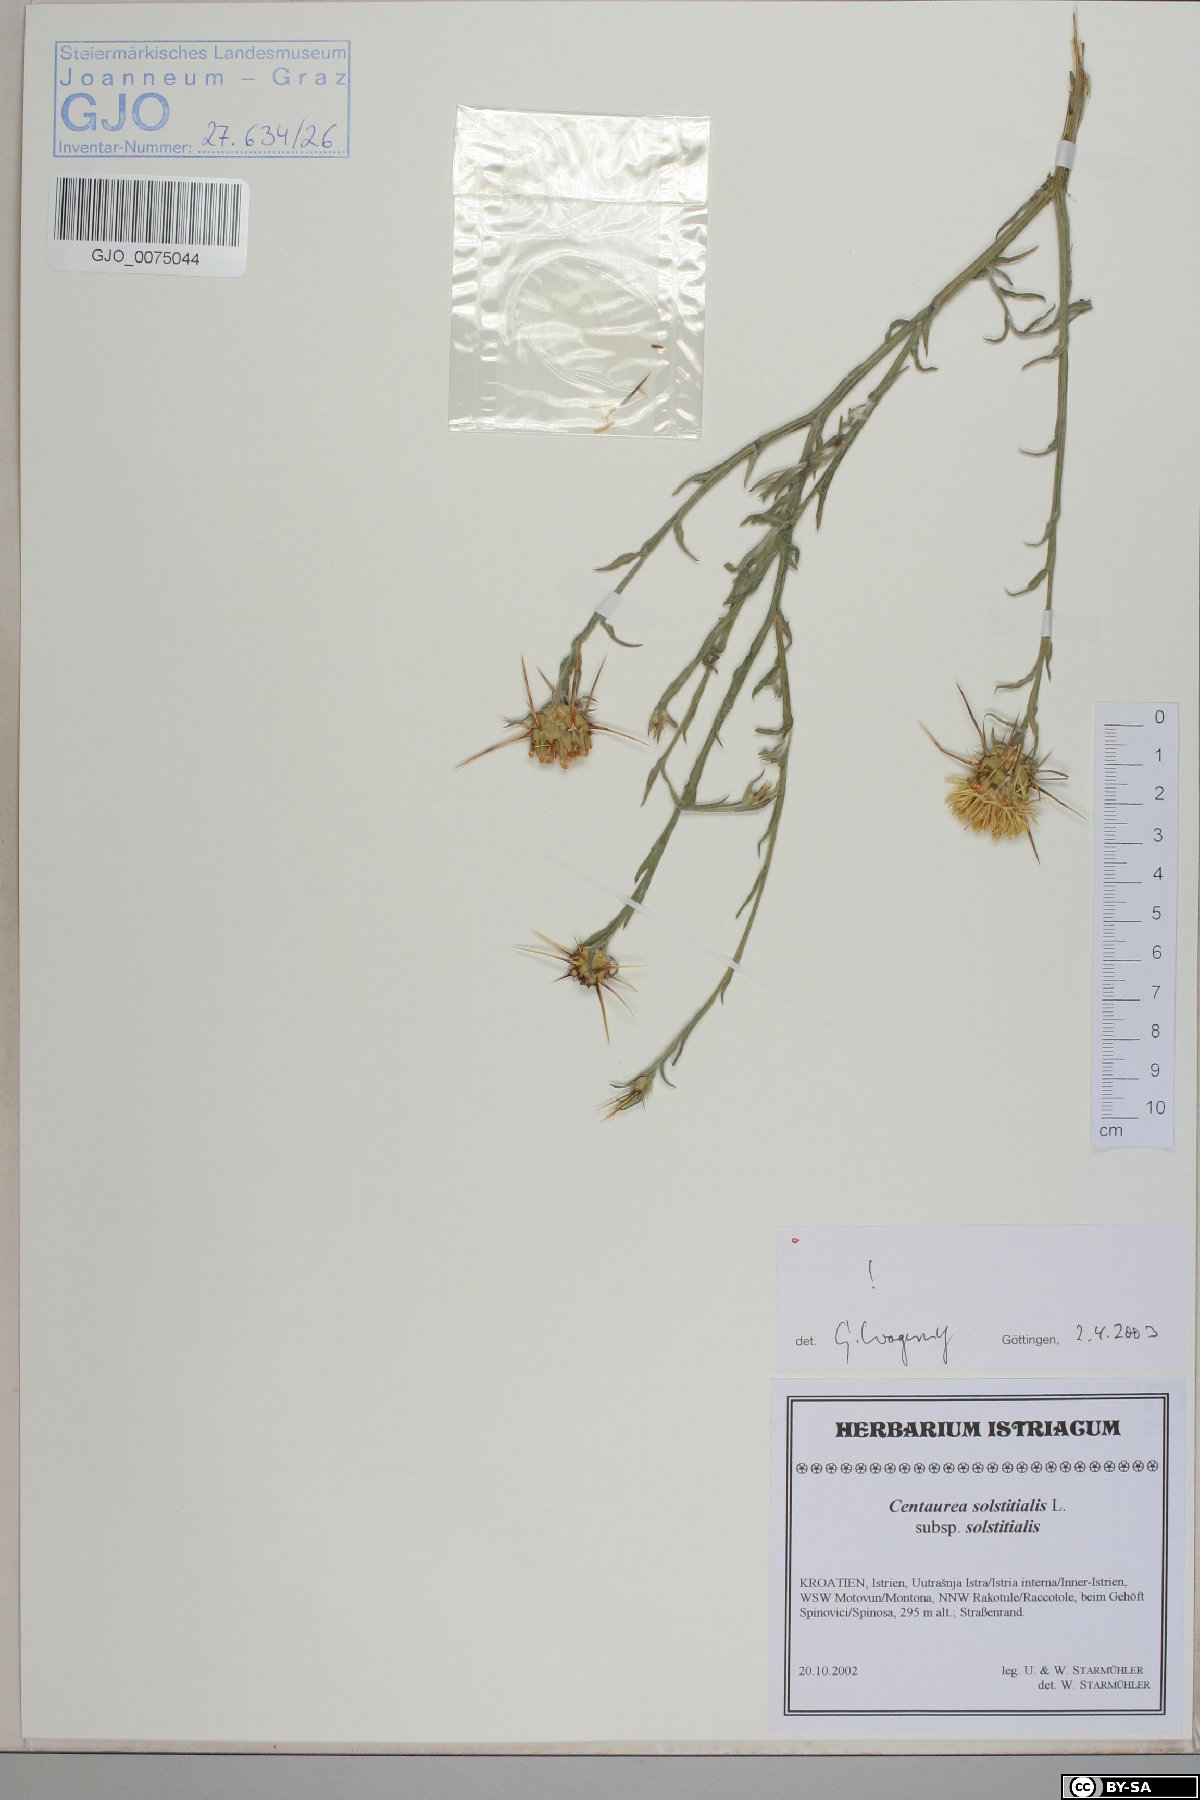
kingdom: Plantae
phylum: Tracheophyta
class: Magnoliopsida
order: Asterales
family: Asteraceae
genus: Centaurea
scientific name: Centaurea solstitialis
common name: Yellow star-thistle
